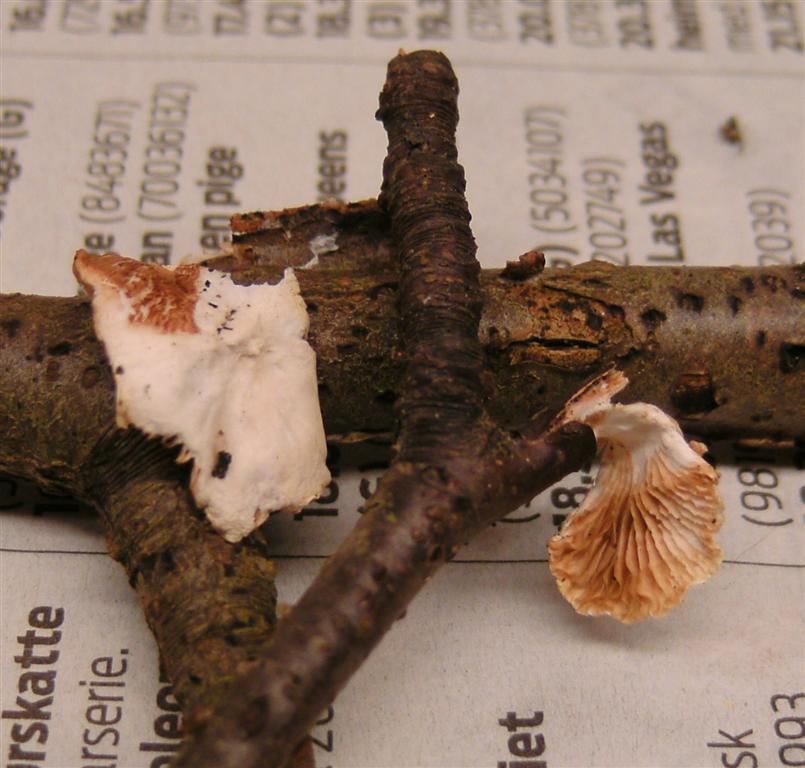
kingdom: Fungi
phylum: Basidiomycota
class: Agaricomycetes
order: Agaricales
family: Crepidotaceae
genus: Crepidotus
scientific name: Crepidotus variabilis
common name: forskelligformet muslingesvamp
